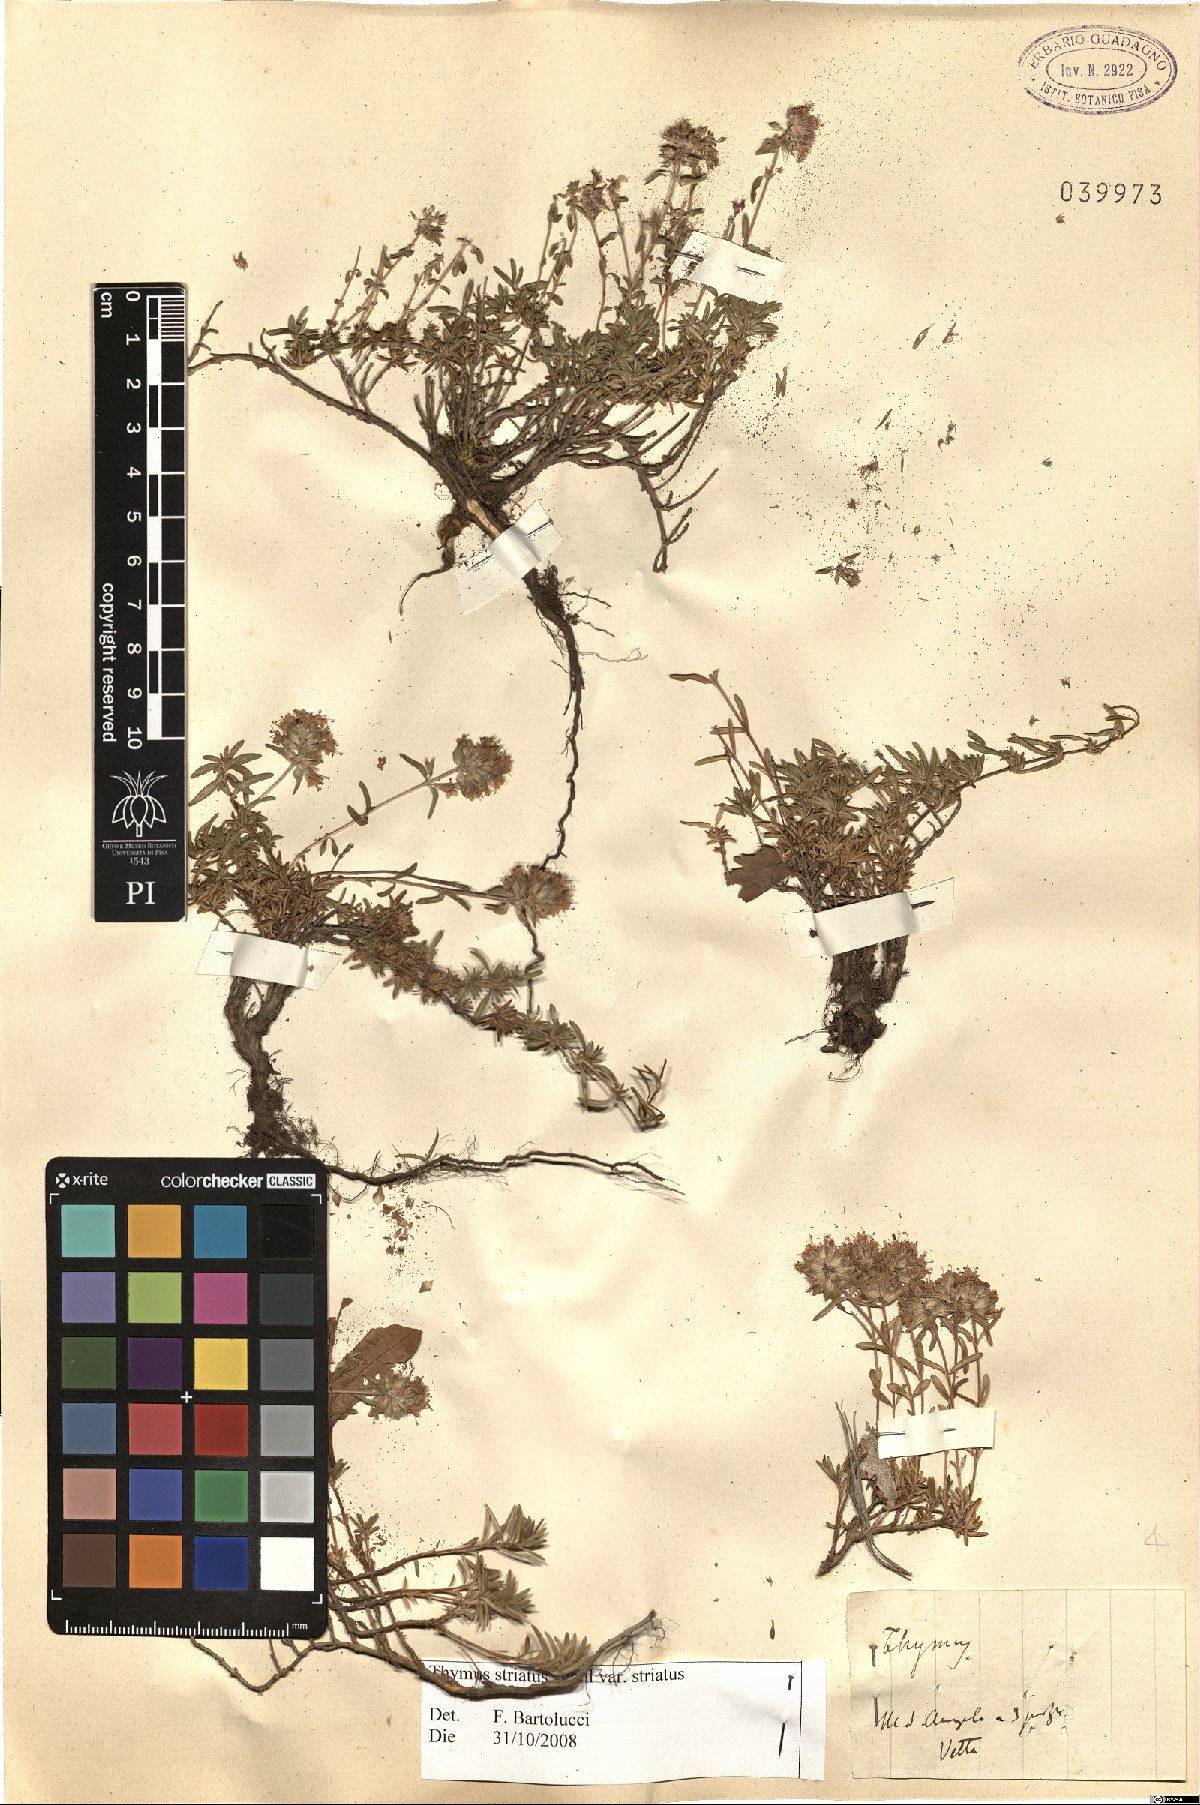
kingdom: Plantae
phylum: Tracheophyta
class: Magnoliopsida
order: Lamiales
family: Lamiaceae
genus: Thymus
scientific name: Thymus striatus
